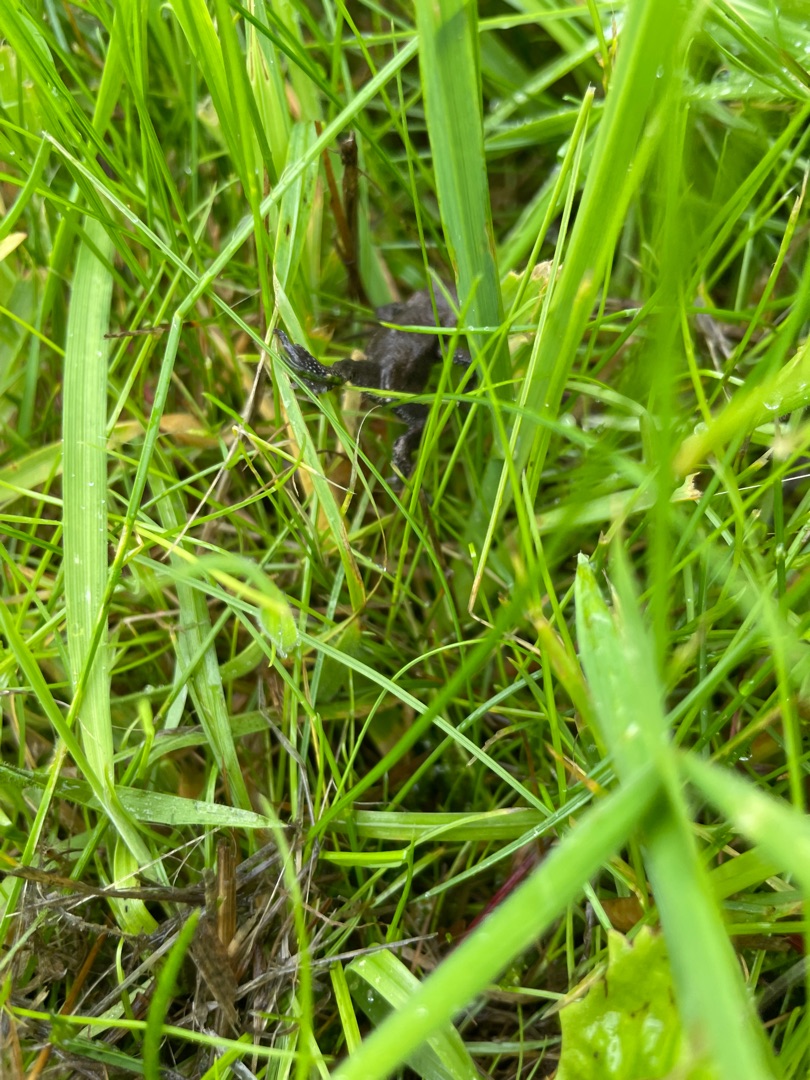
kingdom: Animalia
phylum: Chordata
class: Amphibia
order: Anura
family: Bufonidae
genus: Bufo
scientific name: Bufo bufo
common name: Skrubtudse
